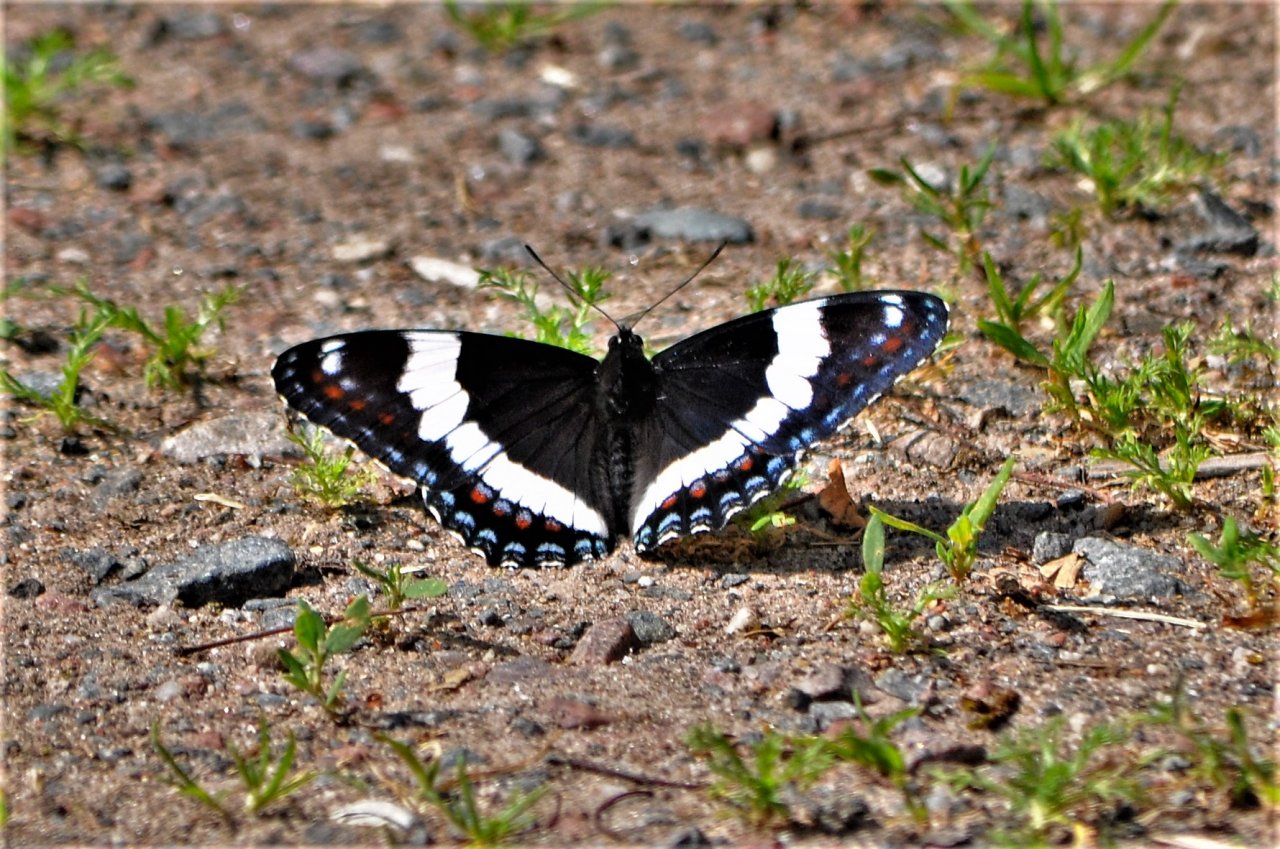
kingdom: Animalia
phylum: Arthropoda
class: Insecta
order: Lepidoptera
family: Nymphalidae
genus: Limenitis
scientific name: Limenitis arthemis
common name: Red-spotted Admiral
